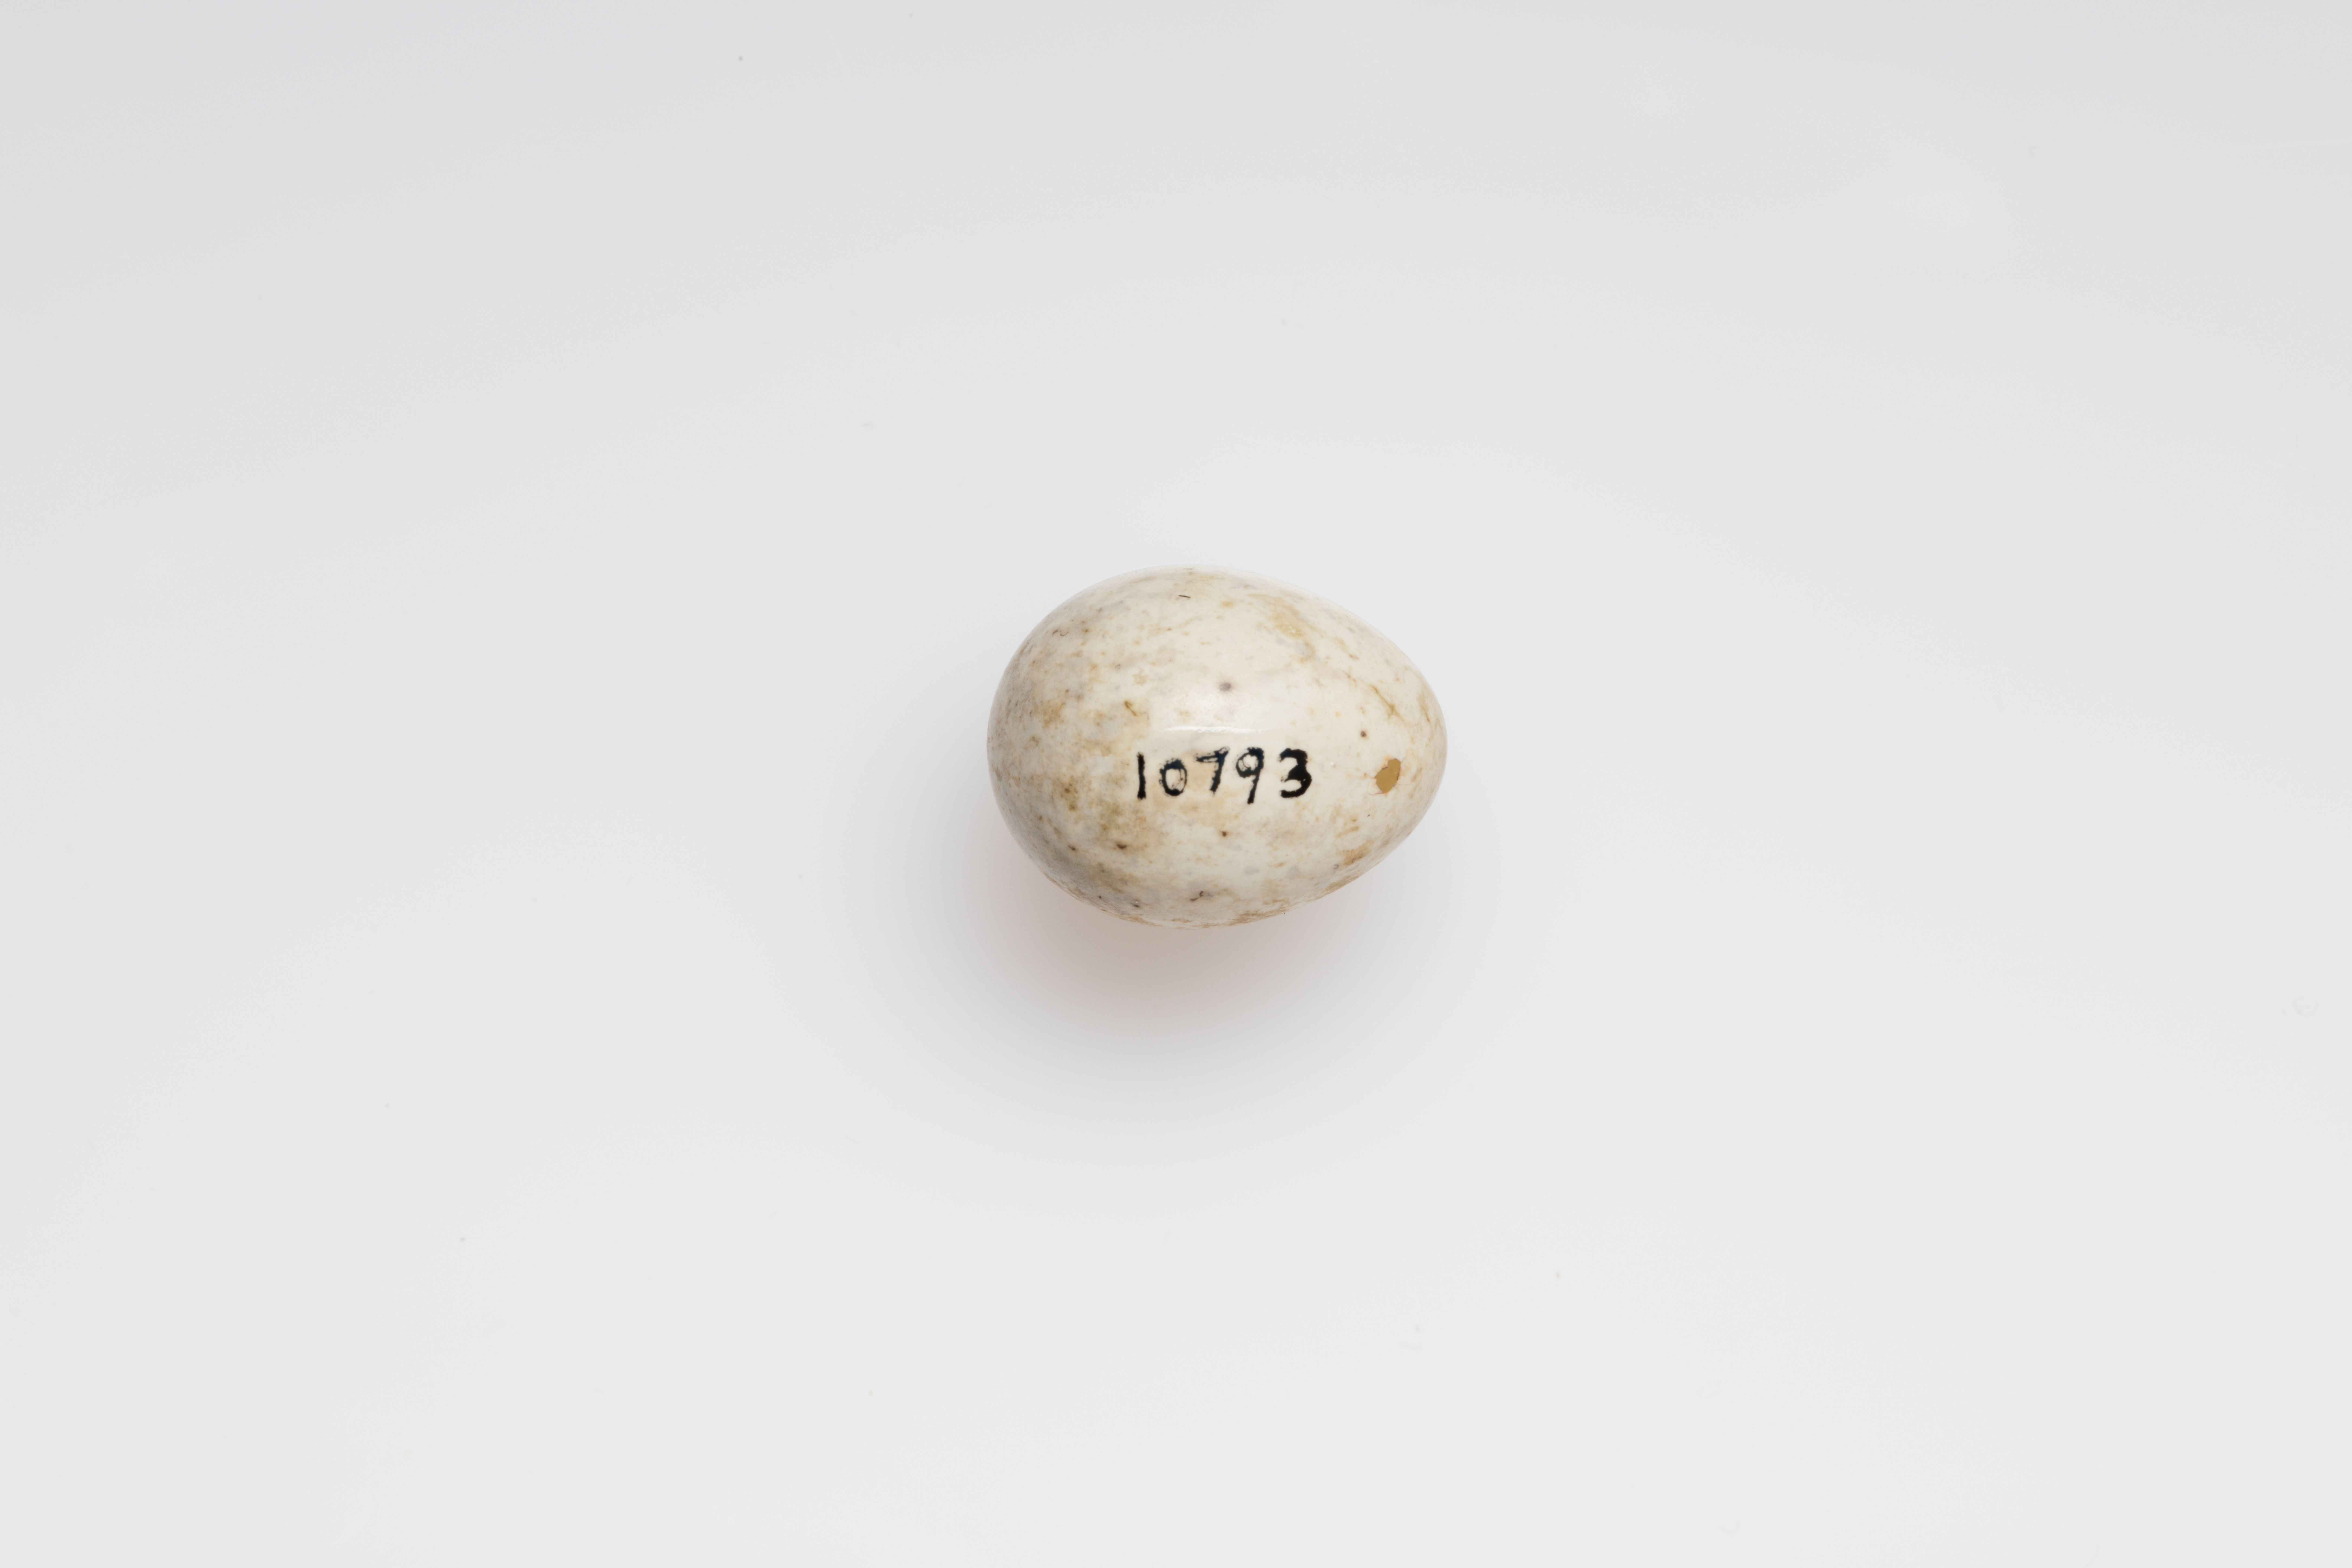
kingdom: Animalia
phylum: Chordata
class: Aves
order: Passeriformes
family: Passeridae
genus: Passer
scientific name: Passer rutilans
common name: Russet sparrow
